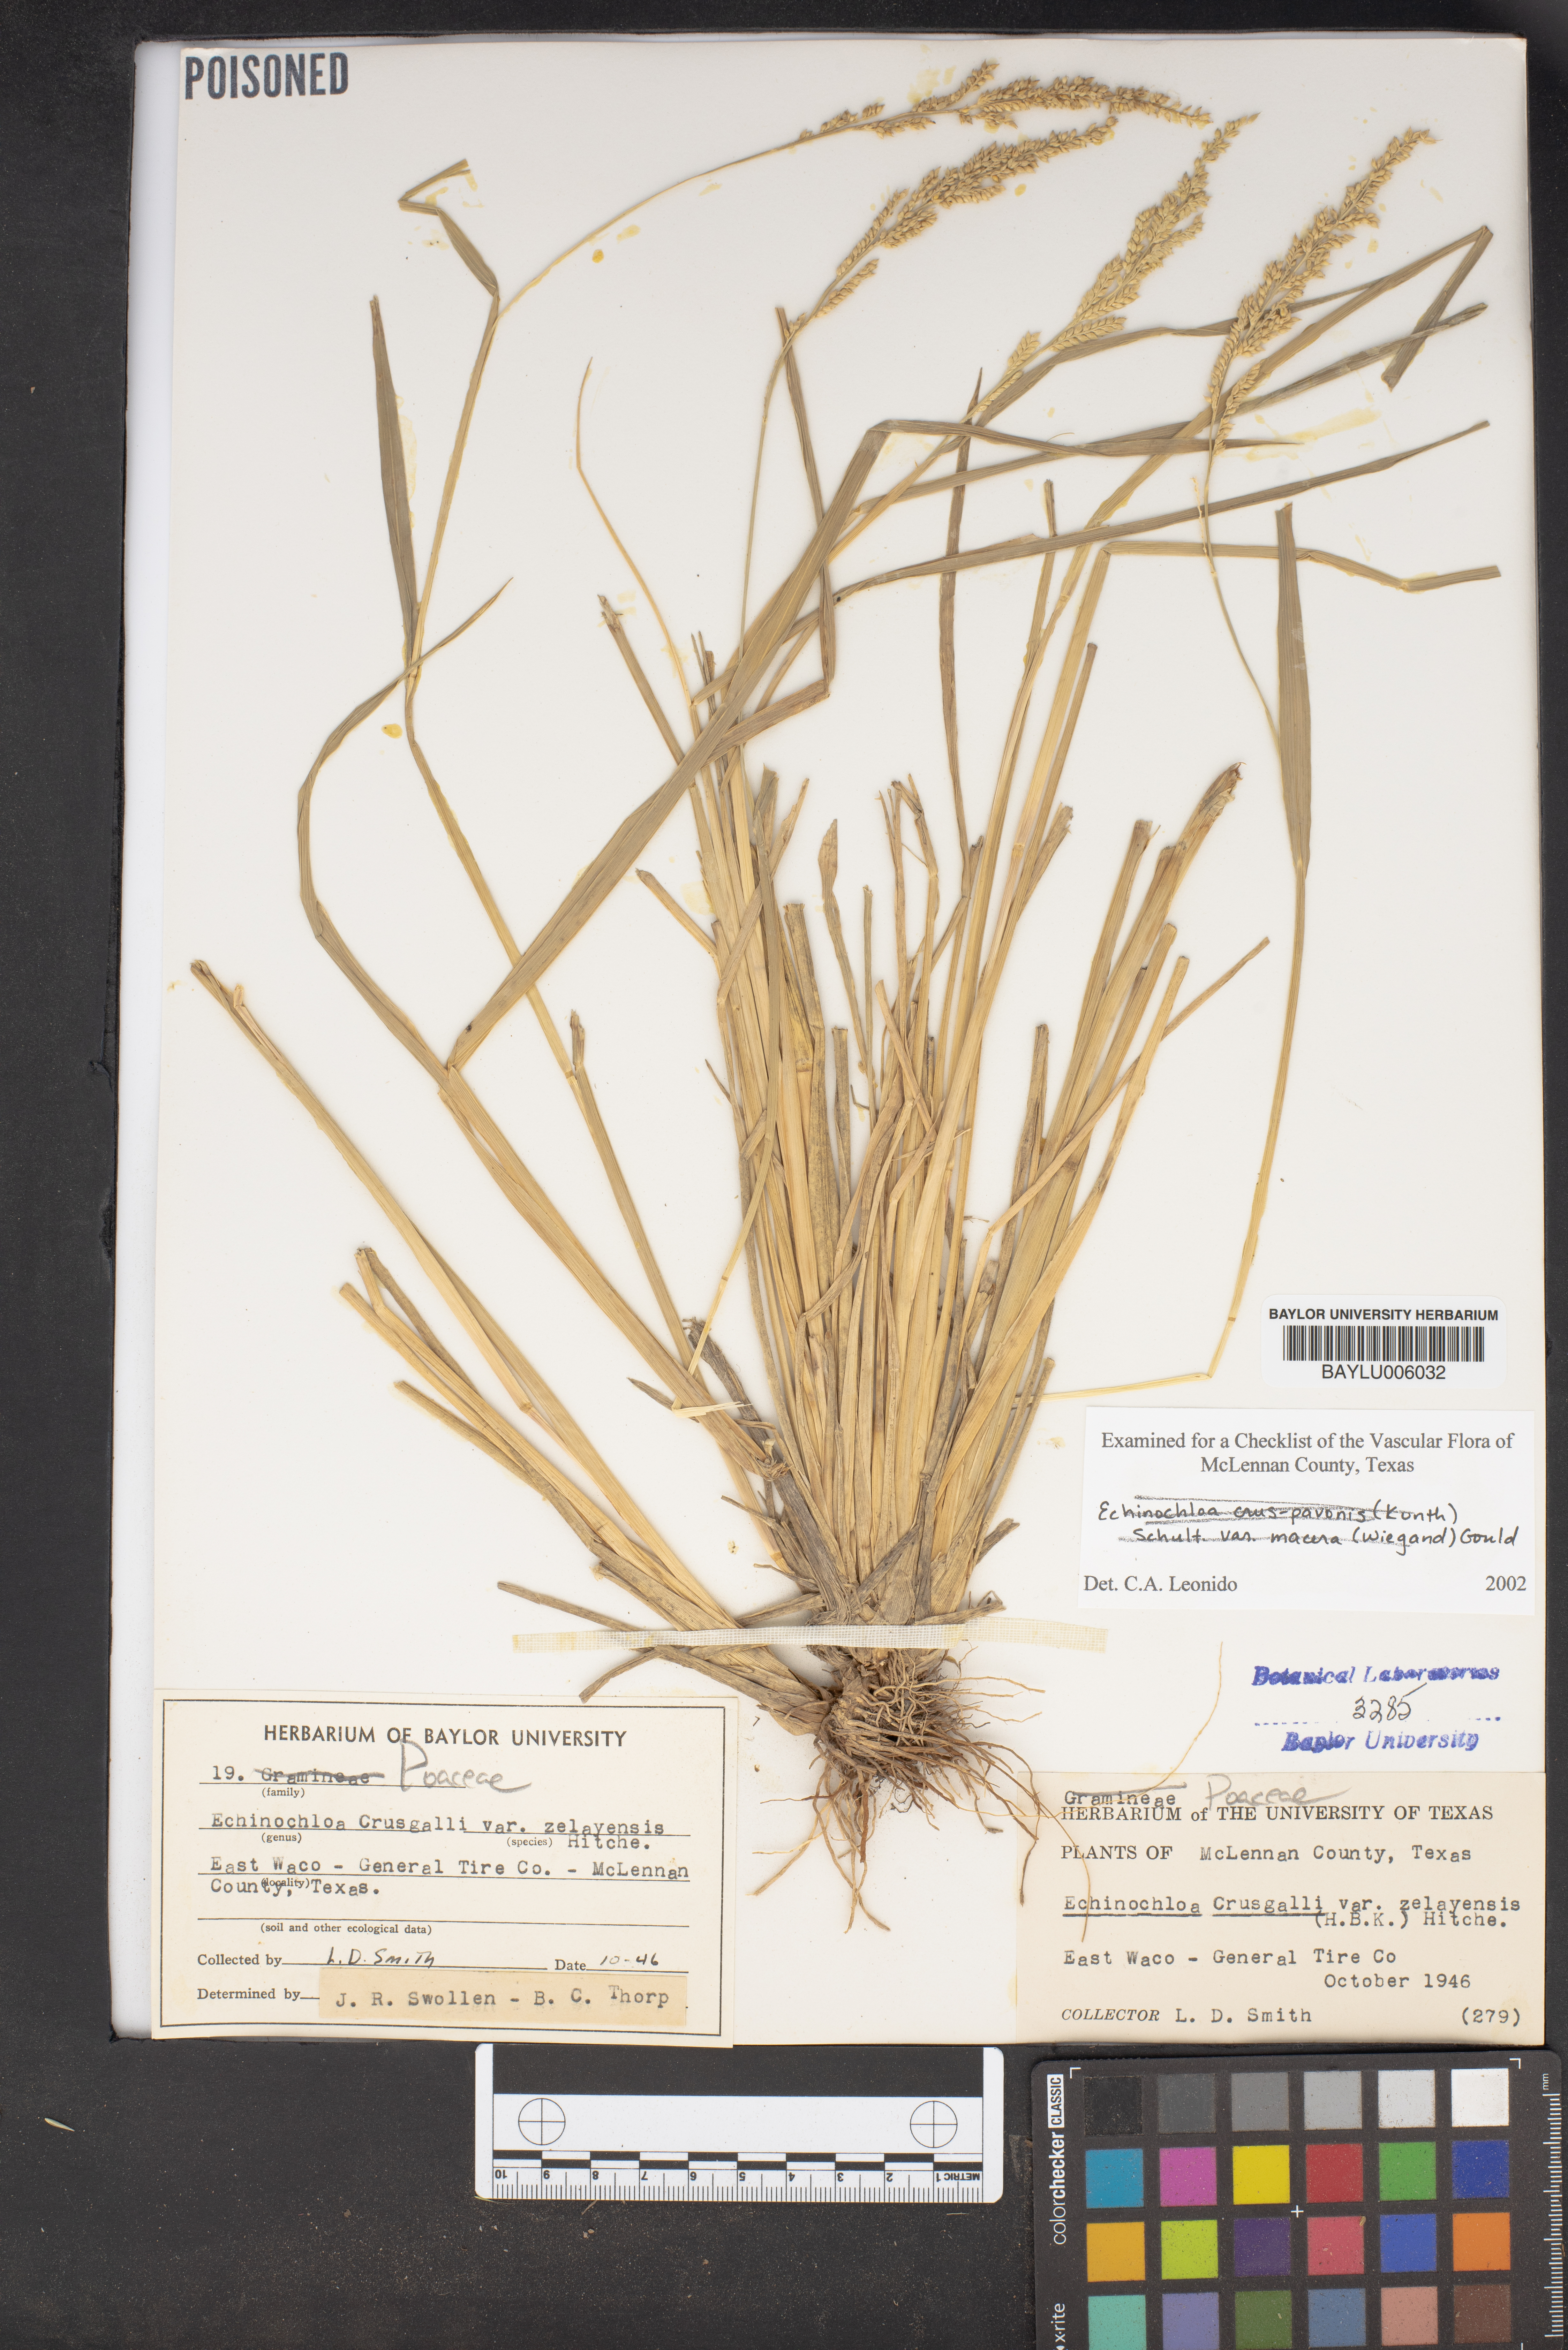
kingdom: Plantae
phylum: Tracheophyta
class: Liliopsida
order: Poales
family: Poaceae
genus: Echinochloa
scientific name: Echinochloa crus-galli
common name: Cockspur
